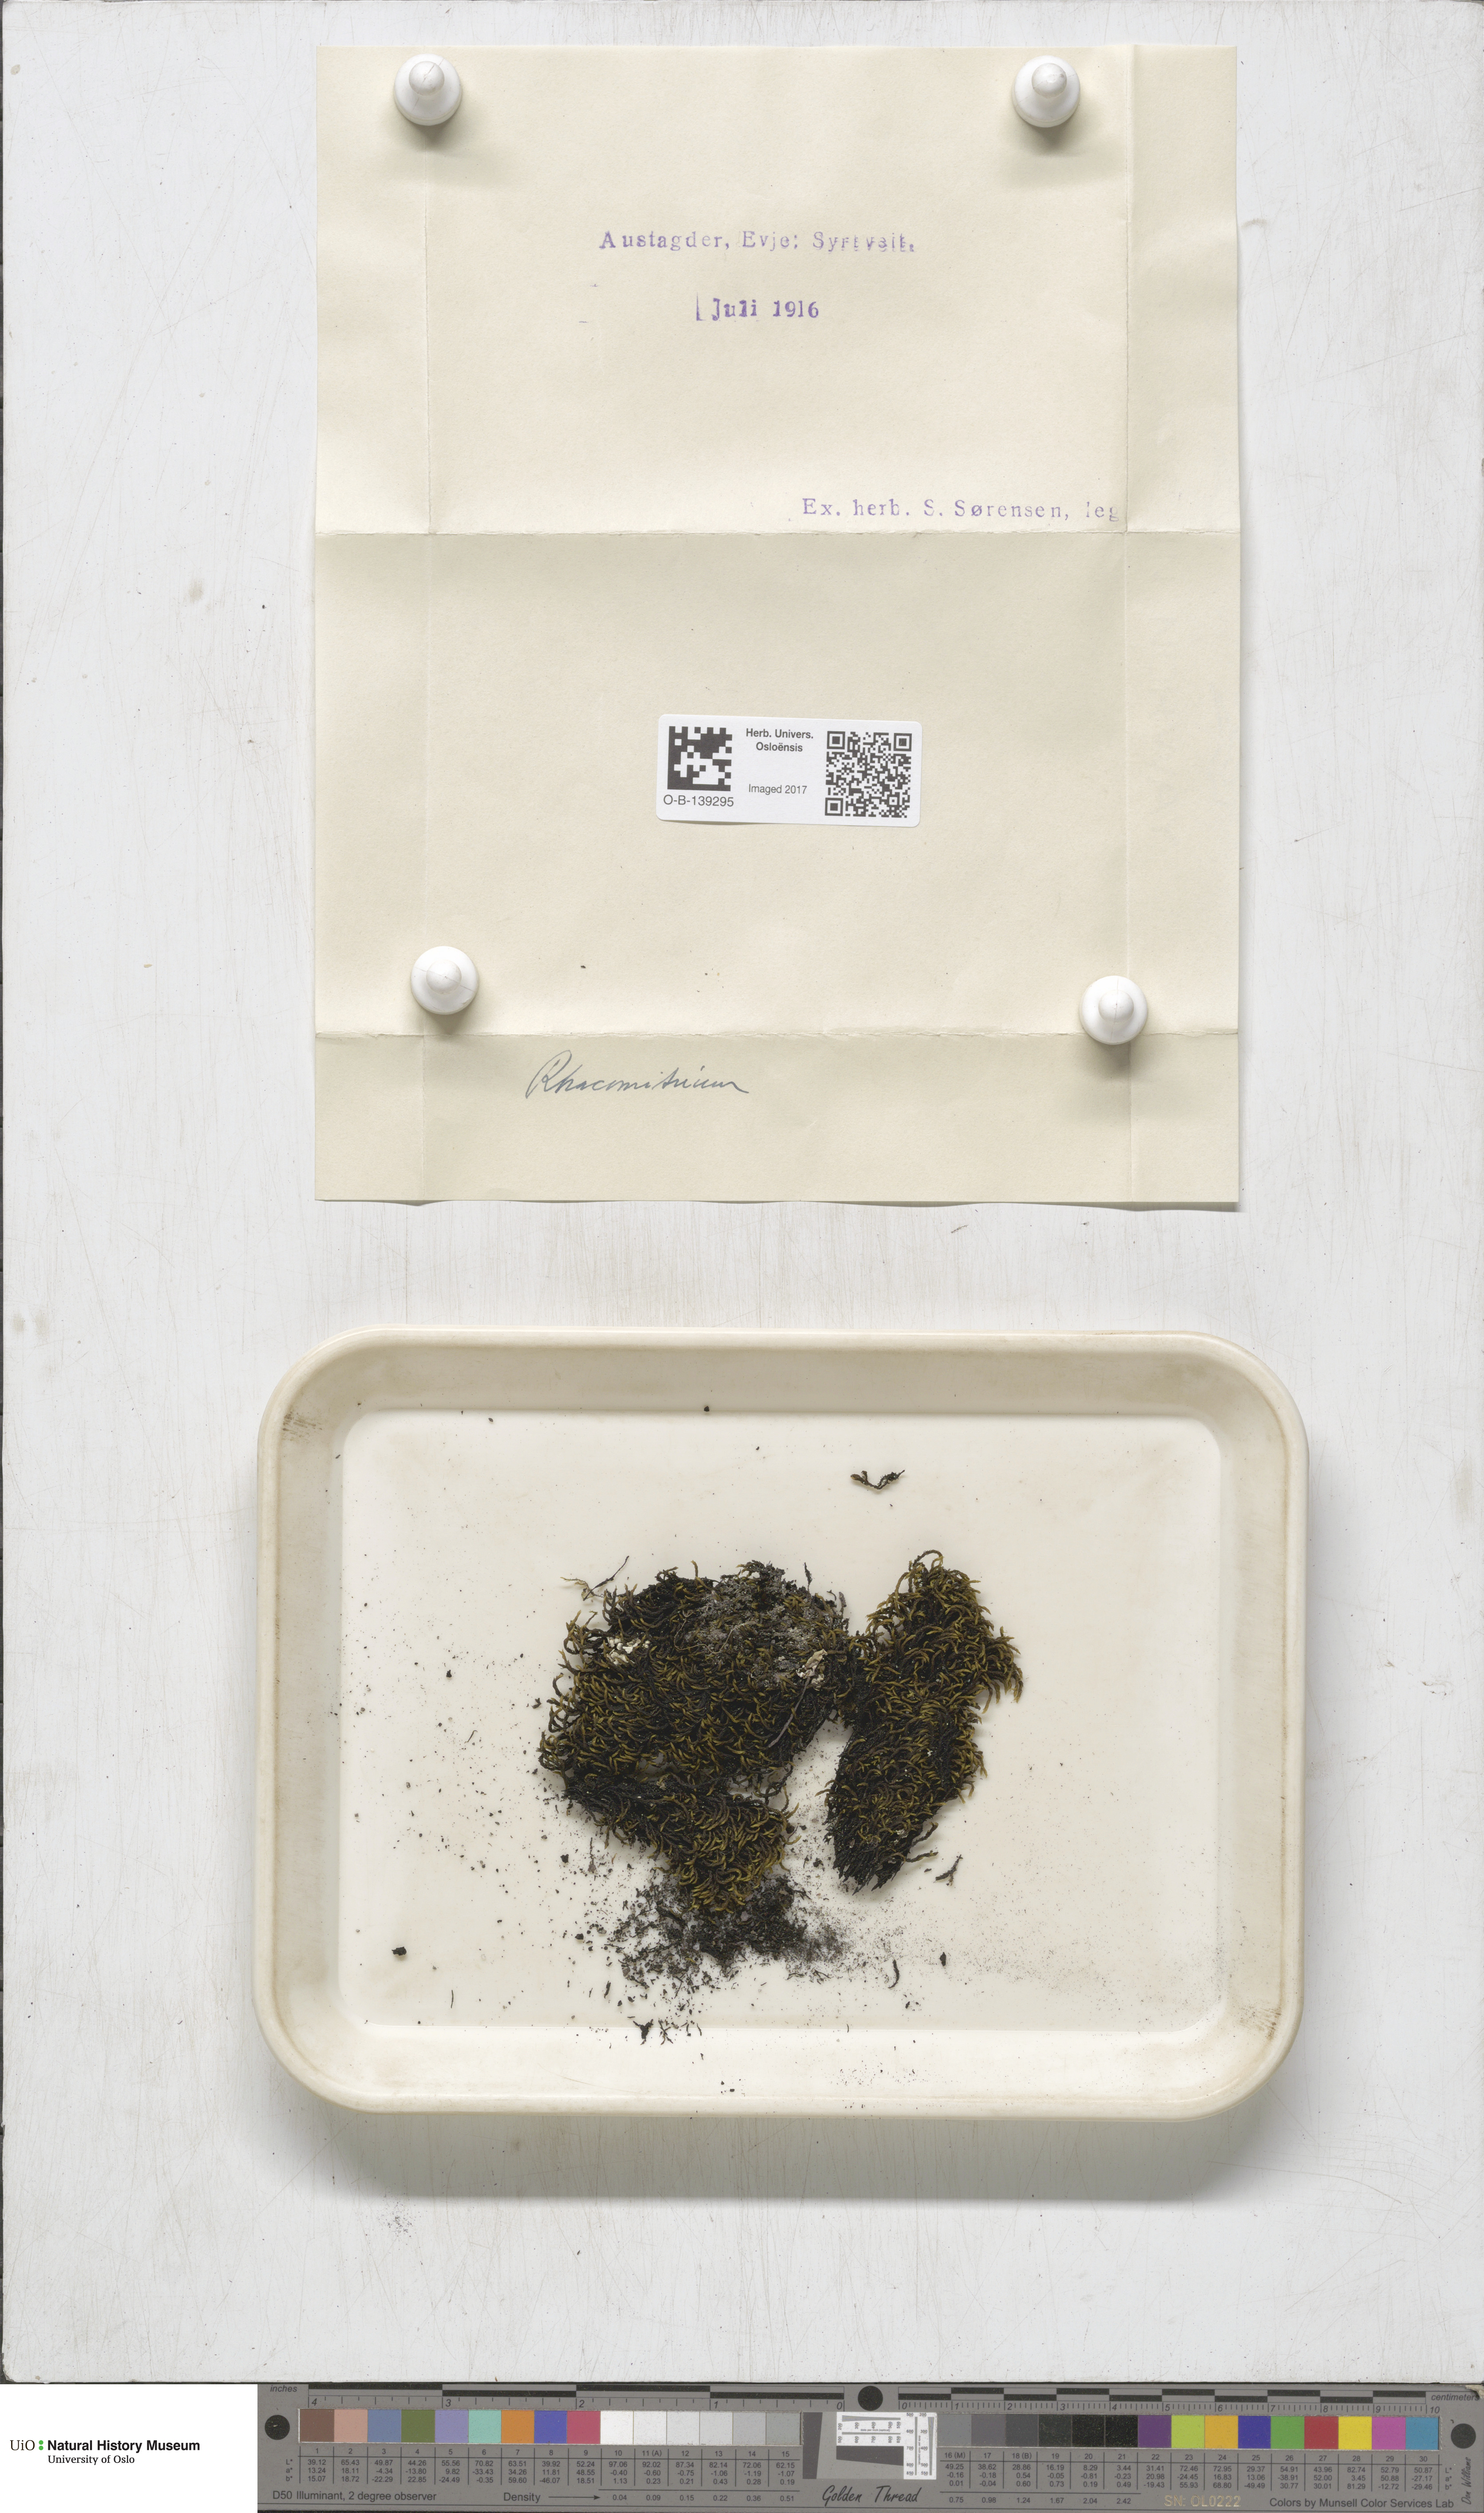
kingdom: Plantae
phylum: Bryophyta
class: Bryopsida
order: Grimmiales
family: Grimmiaceae
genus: Racomitrium
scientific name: Racomitrium
